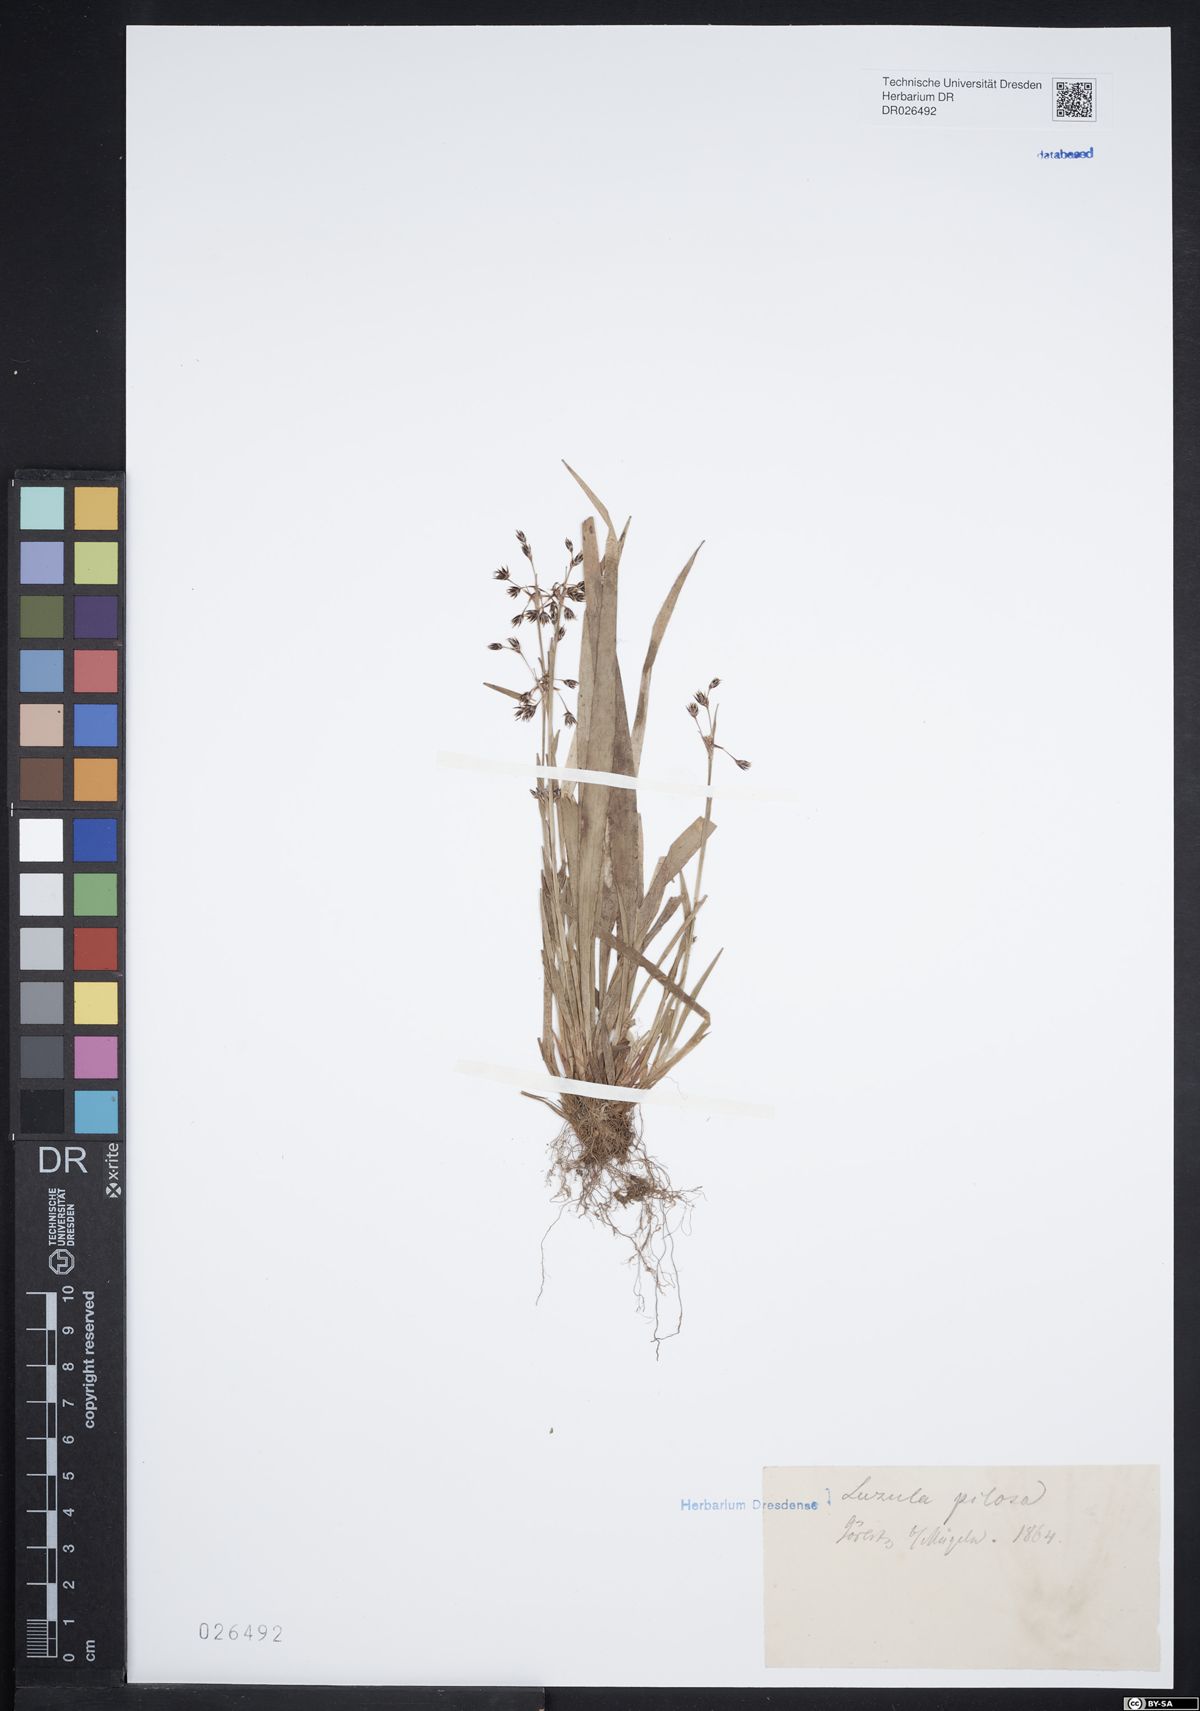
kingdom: Plantae
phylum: Tracheophyta
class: Liliopsida
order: Poales
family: Juncaceae
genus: Luzula
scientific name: Luzula pilosa
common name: Hairy wood-rush
